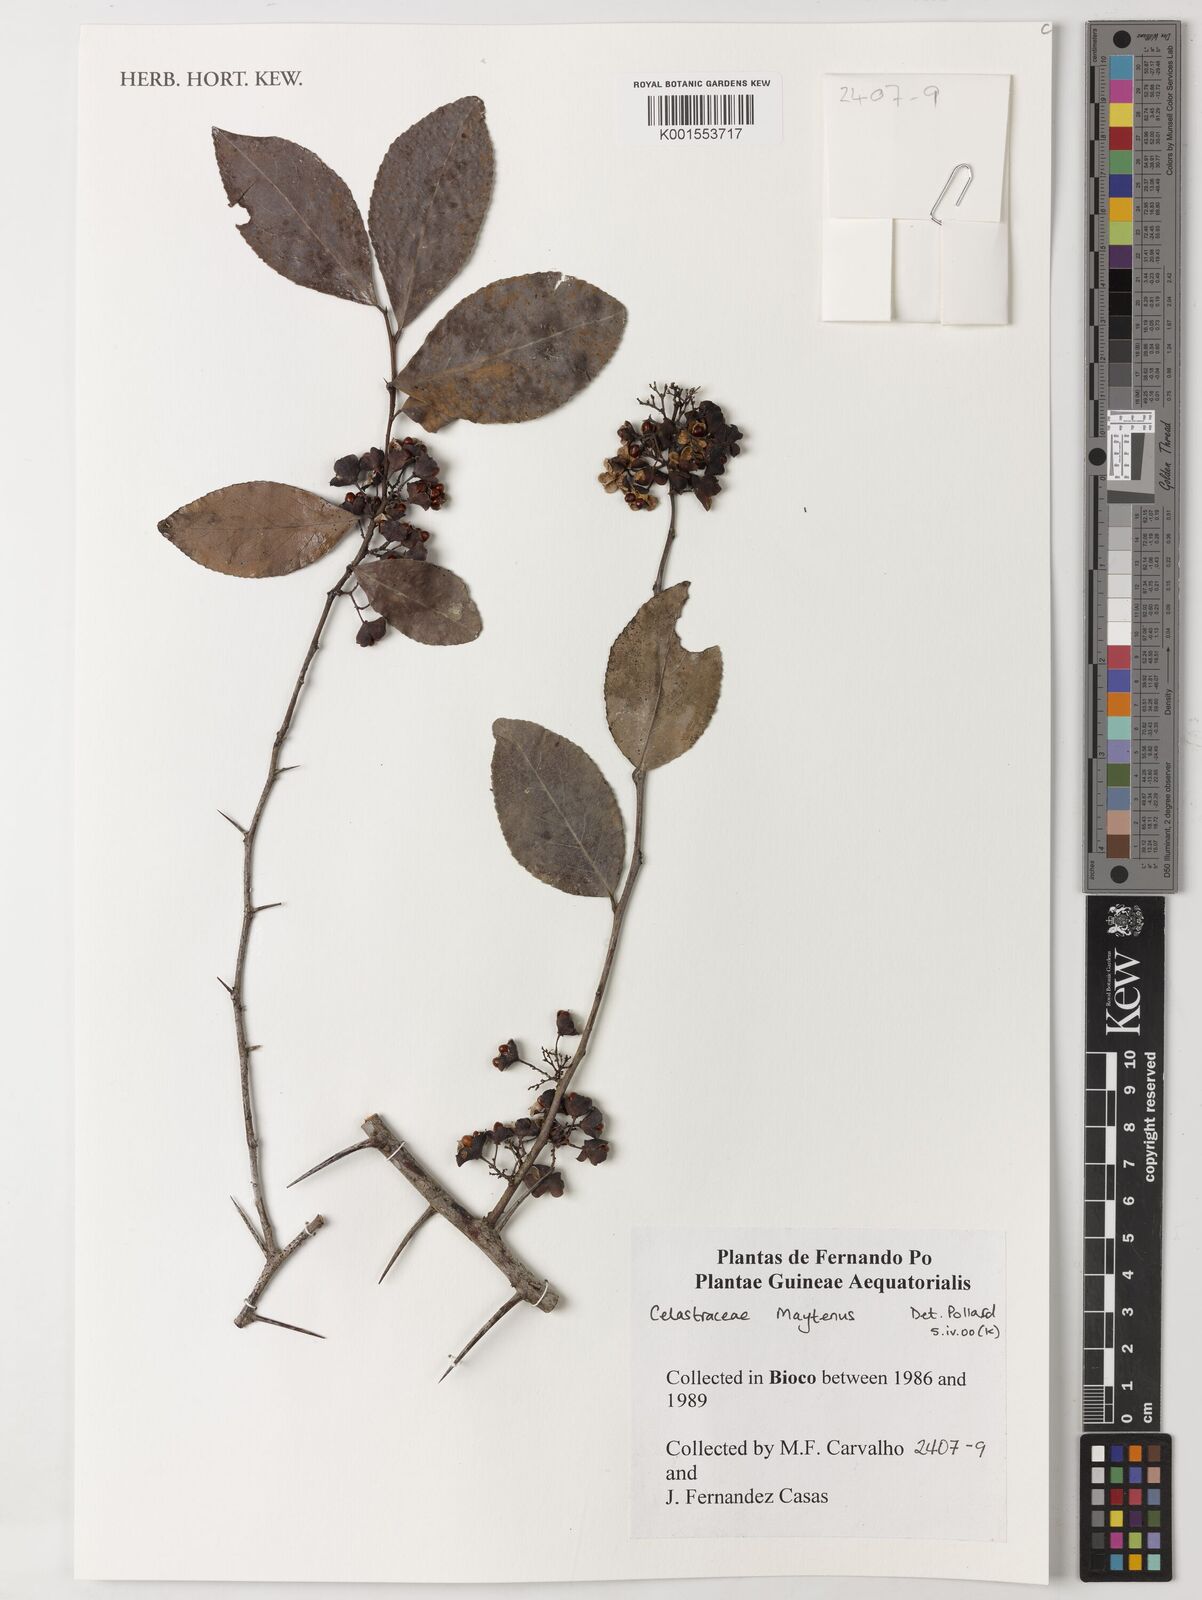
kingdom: Plantae
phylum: Tracheophyta
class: Magnoliopsida
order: Celastrales
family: Celastraceae
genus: Maytenus
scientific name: Maytenus
